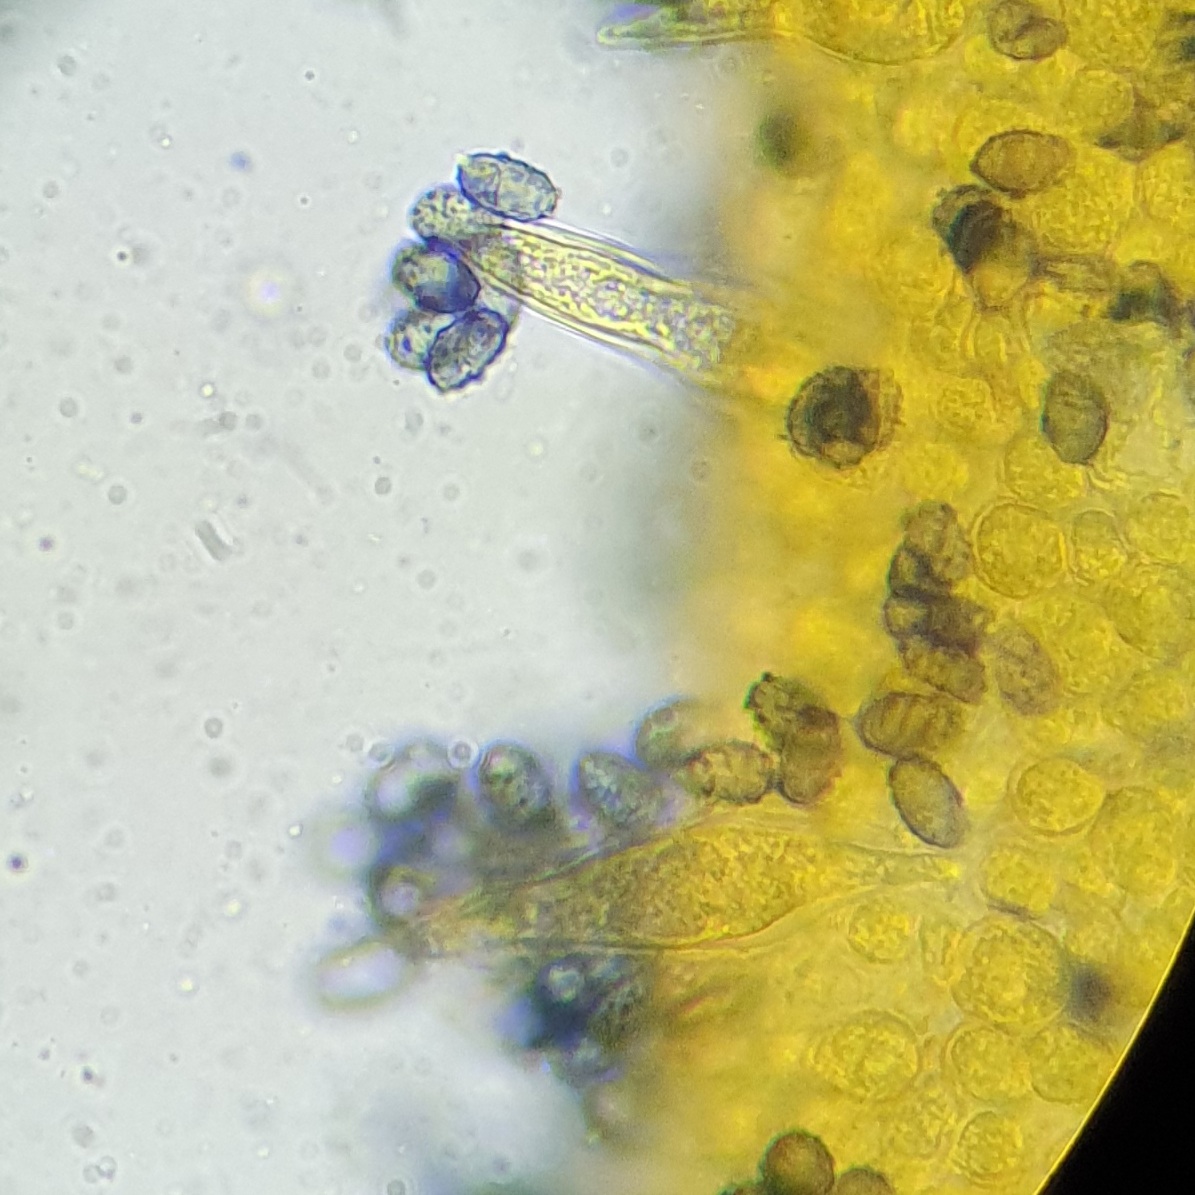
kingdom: Fungi
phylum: Basidiomycota
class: Agaricomycetes
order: Agaricales
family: Tricholomataceae
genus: Melanoleuca
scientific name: Melanoleuca polioleuca
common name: almindelig munkehat
